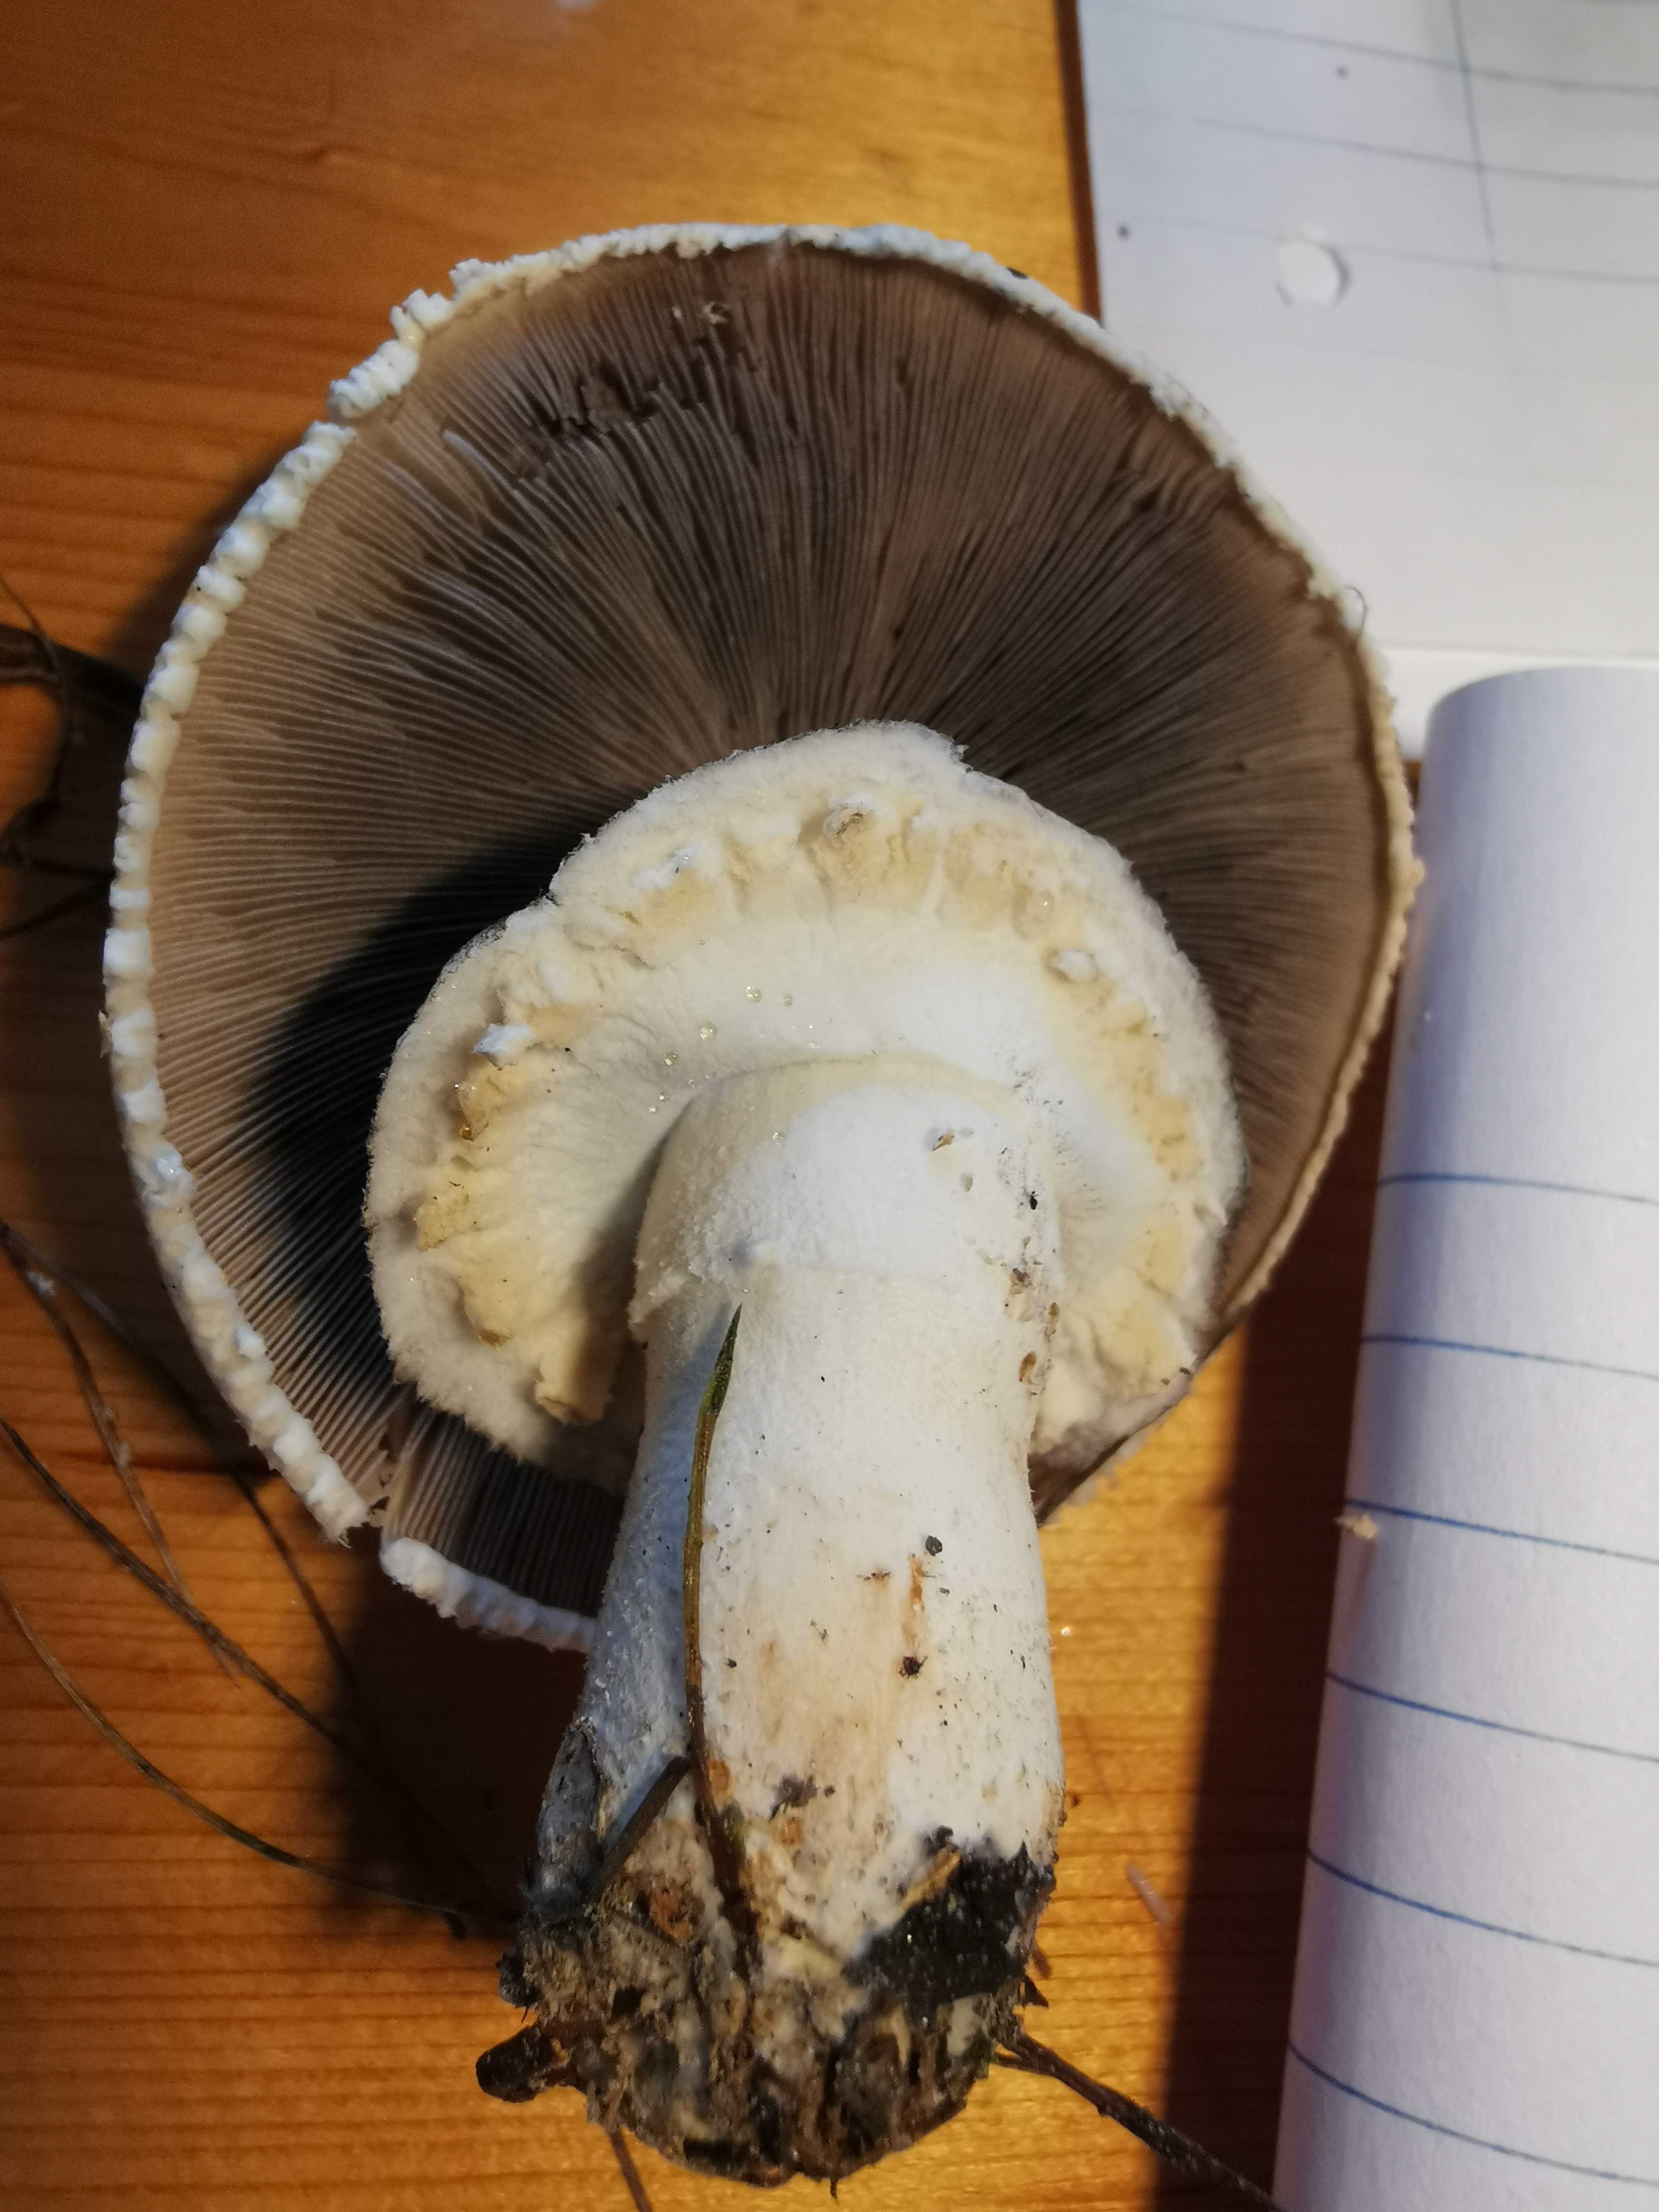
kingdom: Fungi
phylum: Basidiomycota
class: Agaricomycetes
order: Agaricales
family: Agaricaceae
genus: Agaricus
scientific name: Agaricus arvensis
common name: ager-champignon
